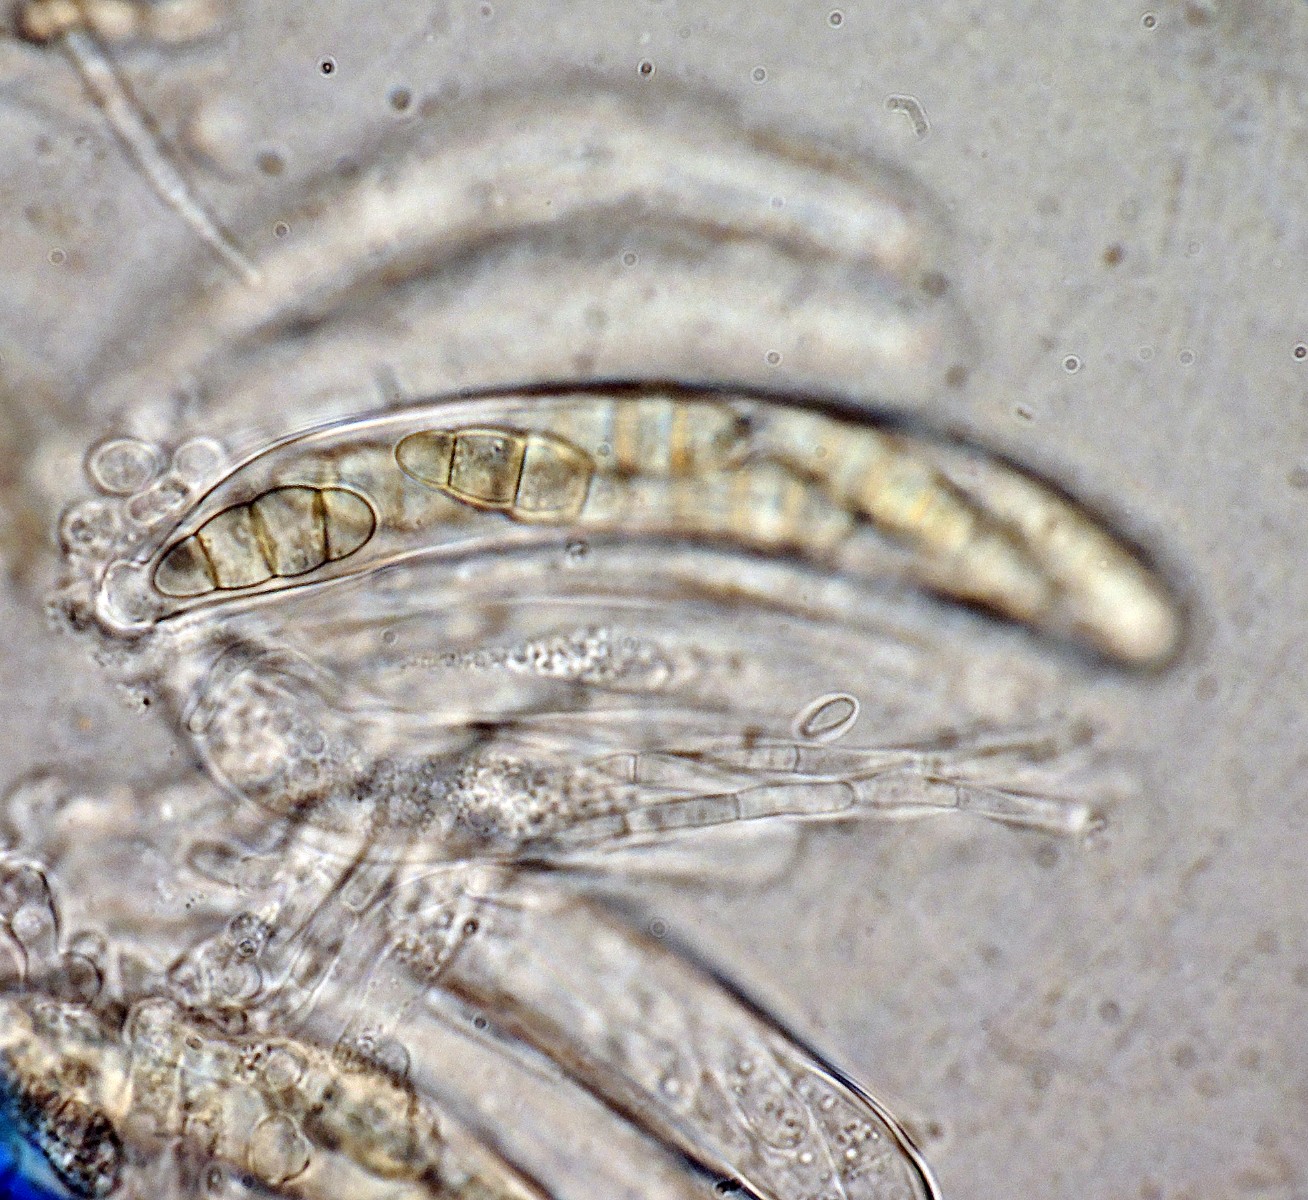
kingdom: Fungi
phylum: Ascomycota
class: Dothideomycetes
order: Dothideales
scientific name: Dothideales
